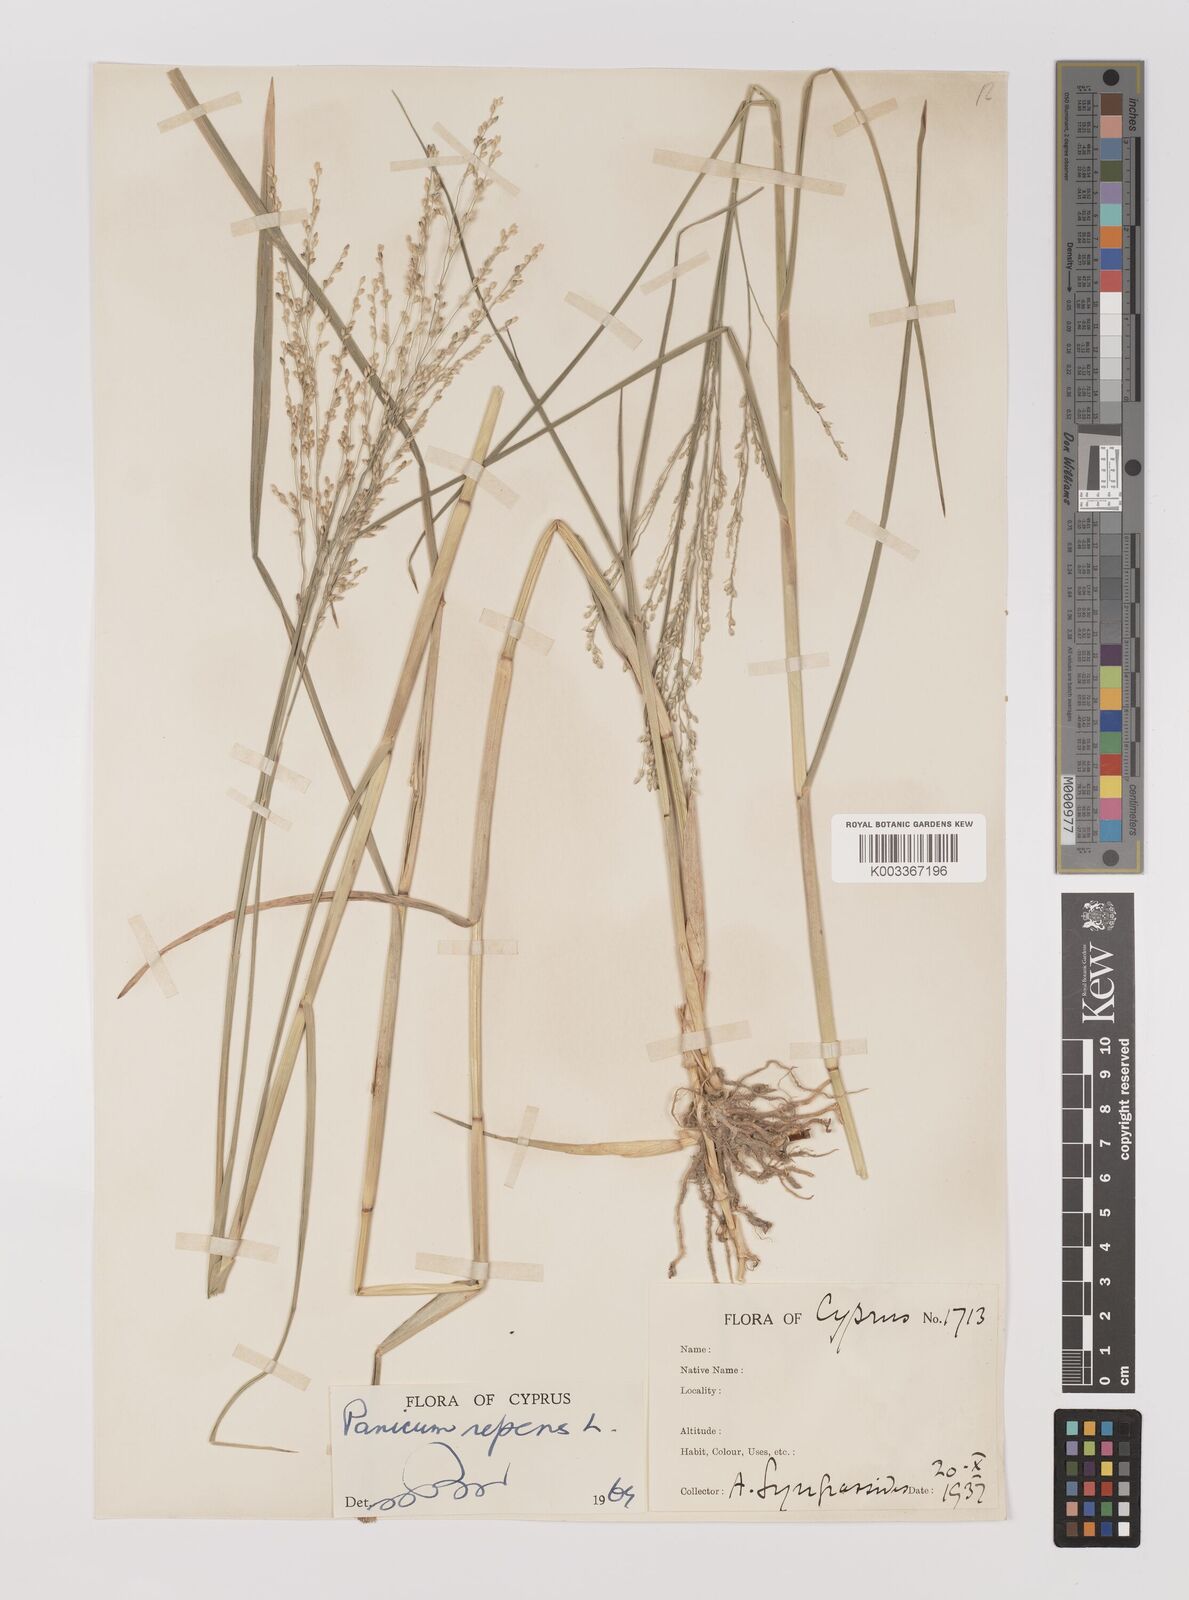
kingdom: Plantae
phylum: Tracheophyta
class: Liliopsida
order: Poales
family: Poaceae
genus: Panicum
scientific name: Panicum repens
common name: Torpedo grass
